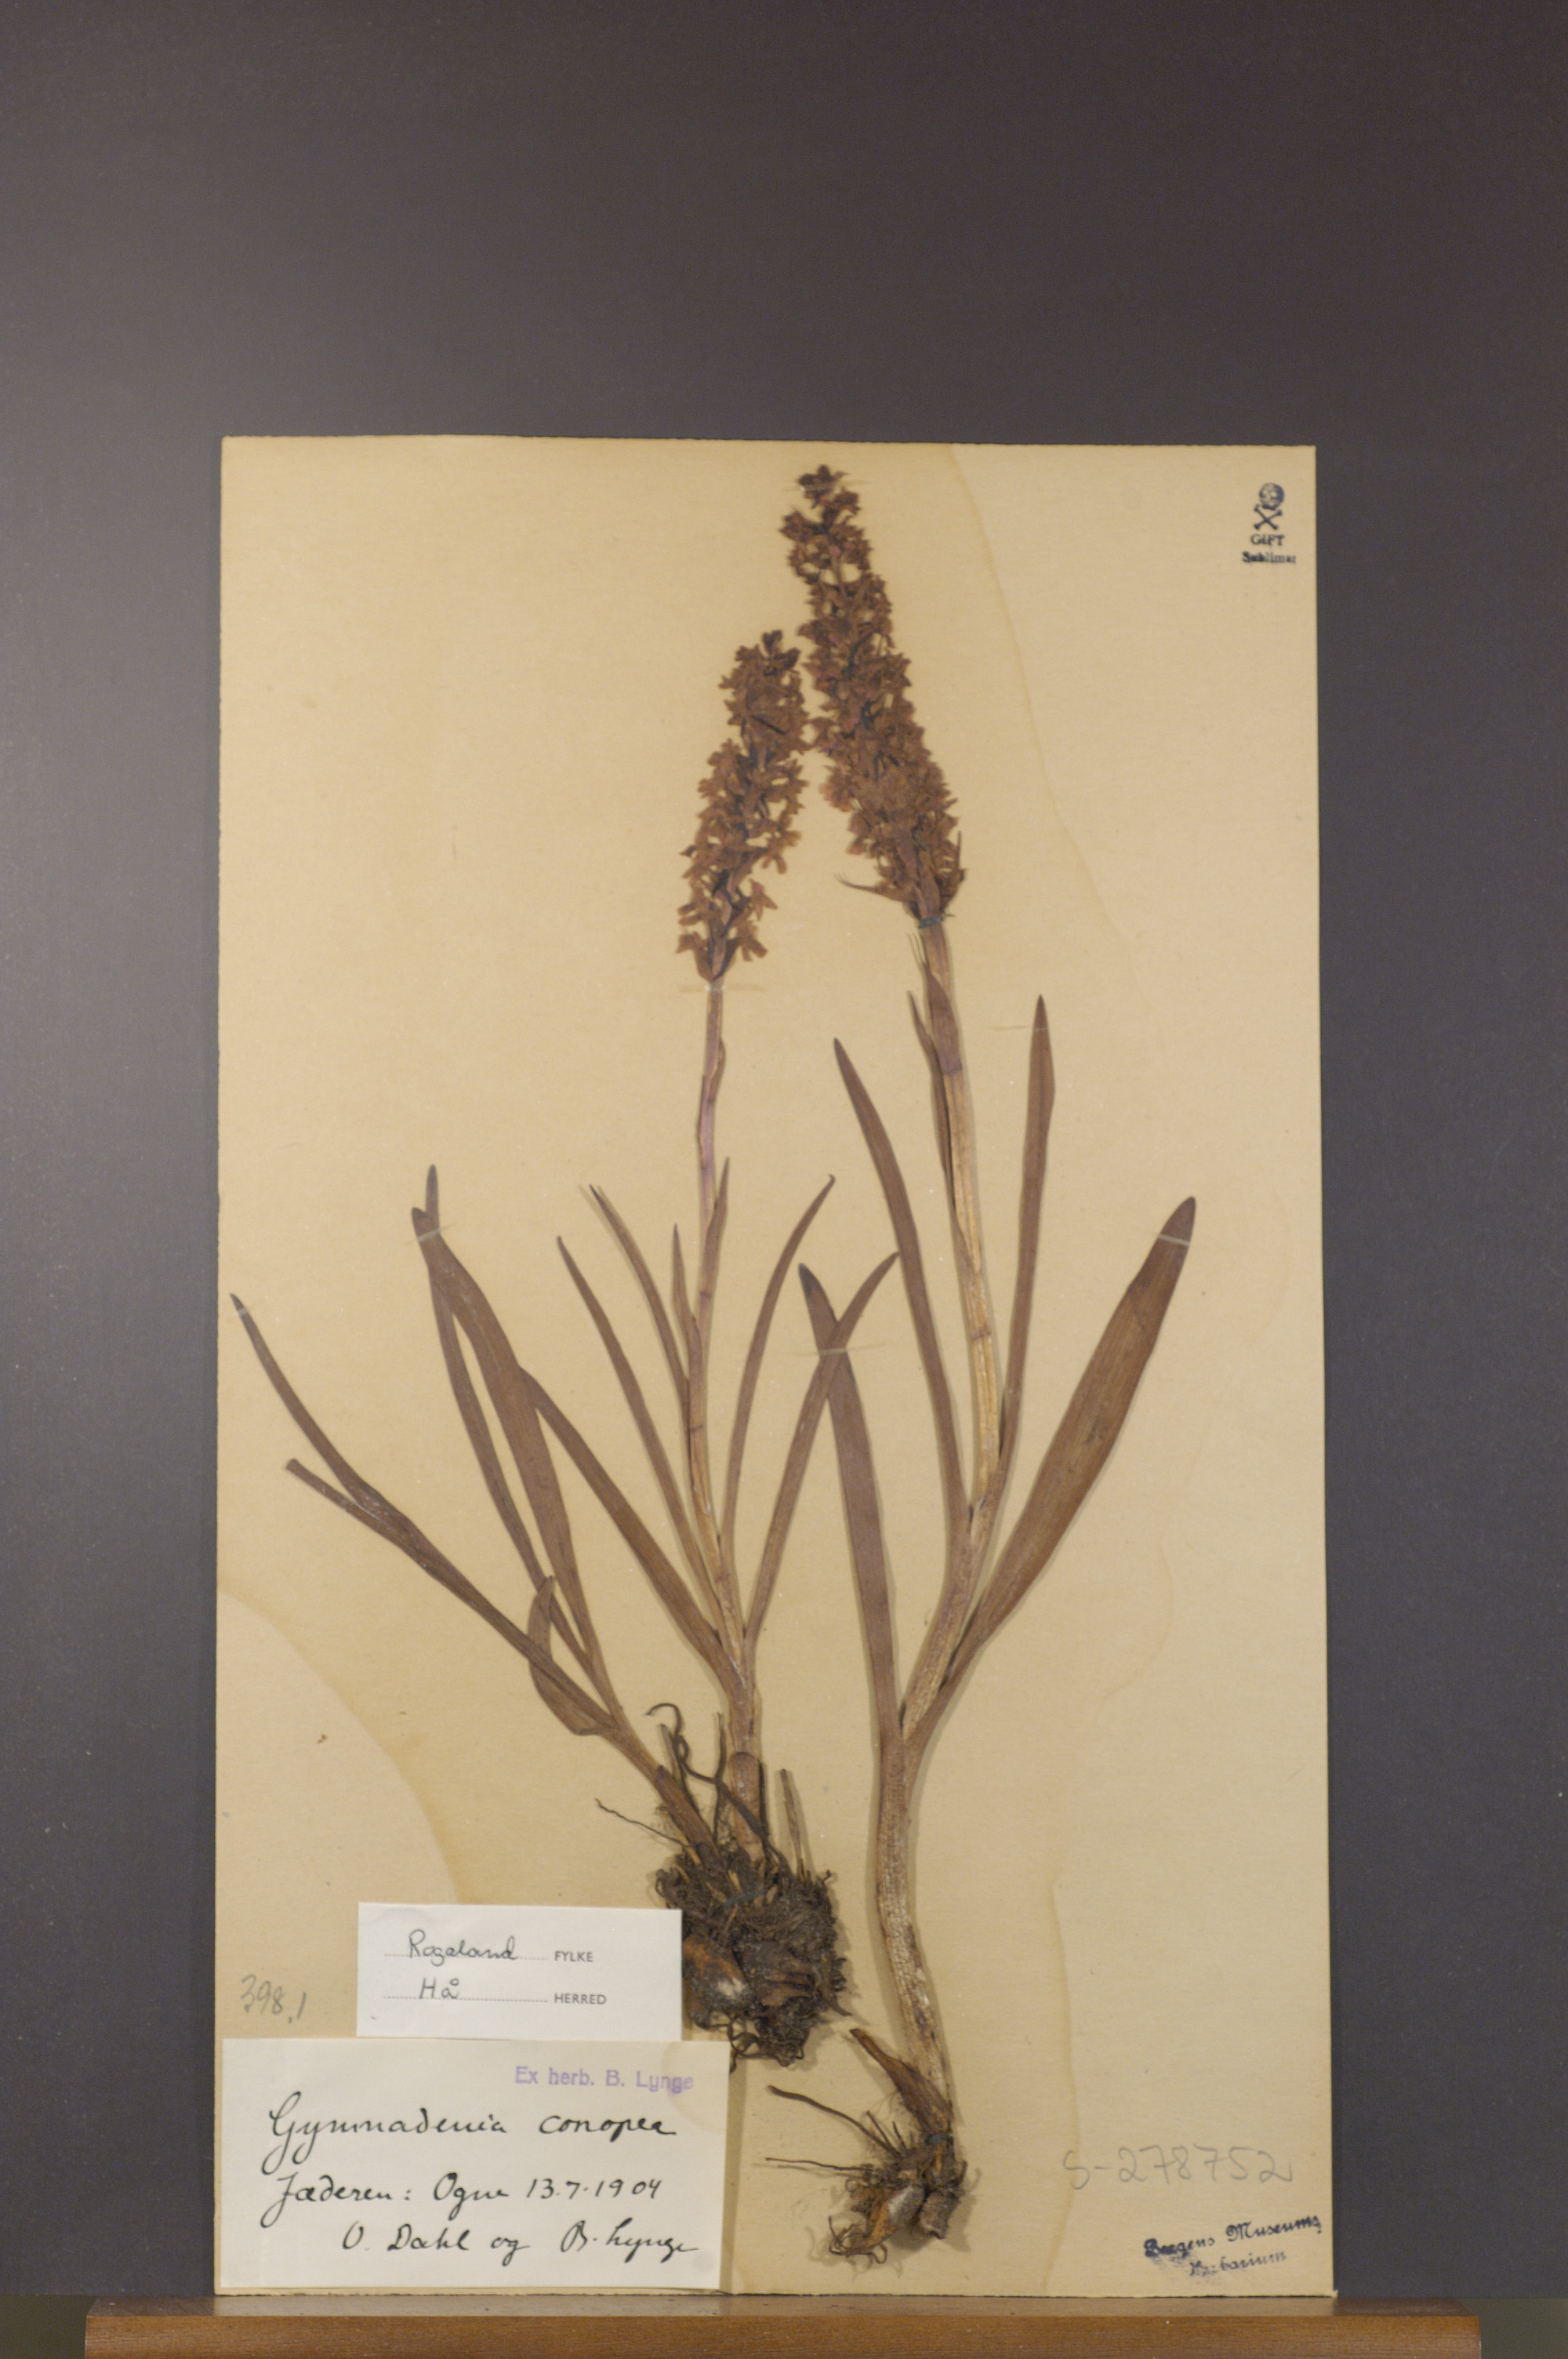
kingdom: Plantae
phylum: Tracheophyta
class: Liliopsida
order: Asparagales
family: Orchidaceae
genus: Gymnadenia
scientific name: Gymnadenia conopsea
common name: Fragrant orchid
